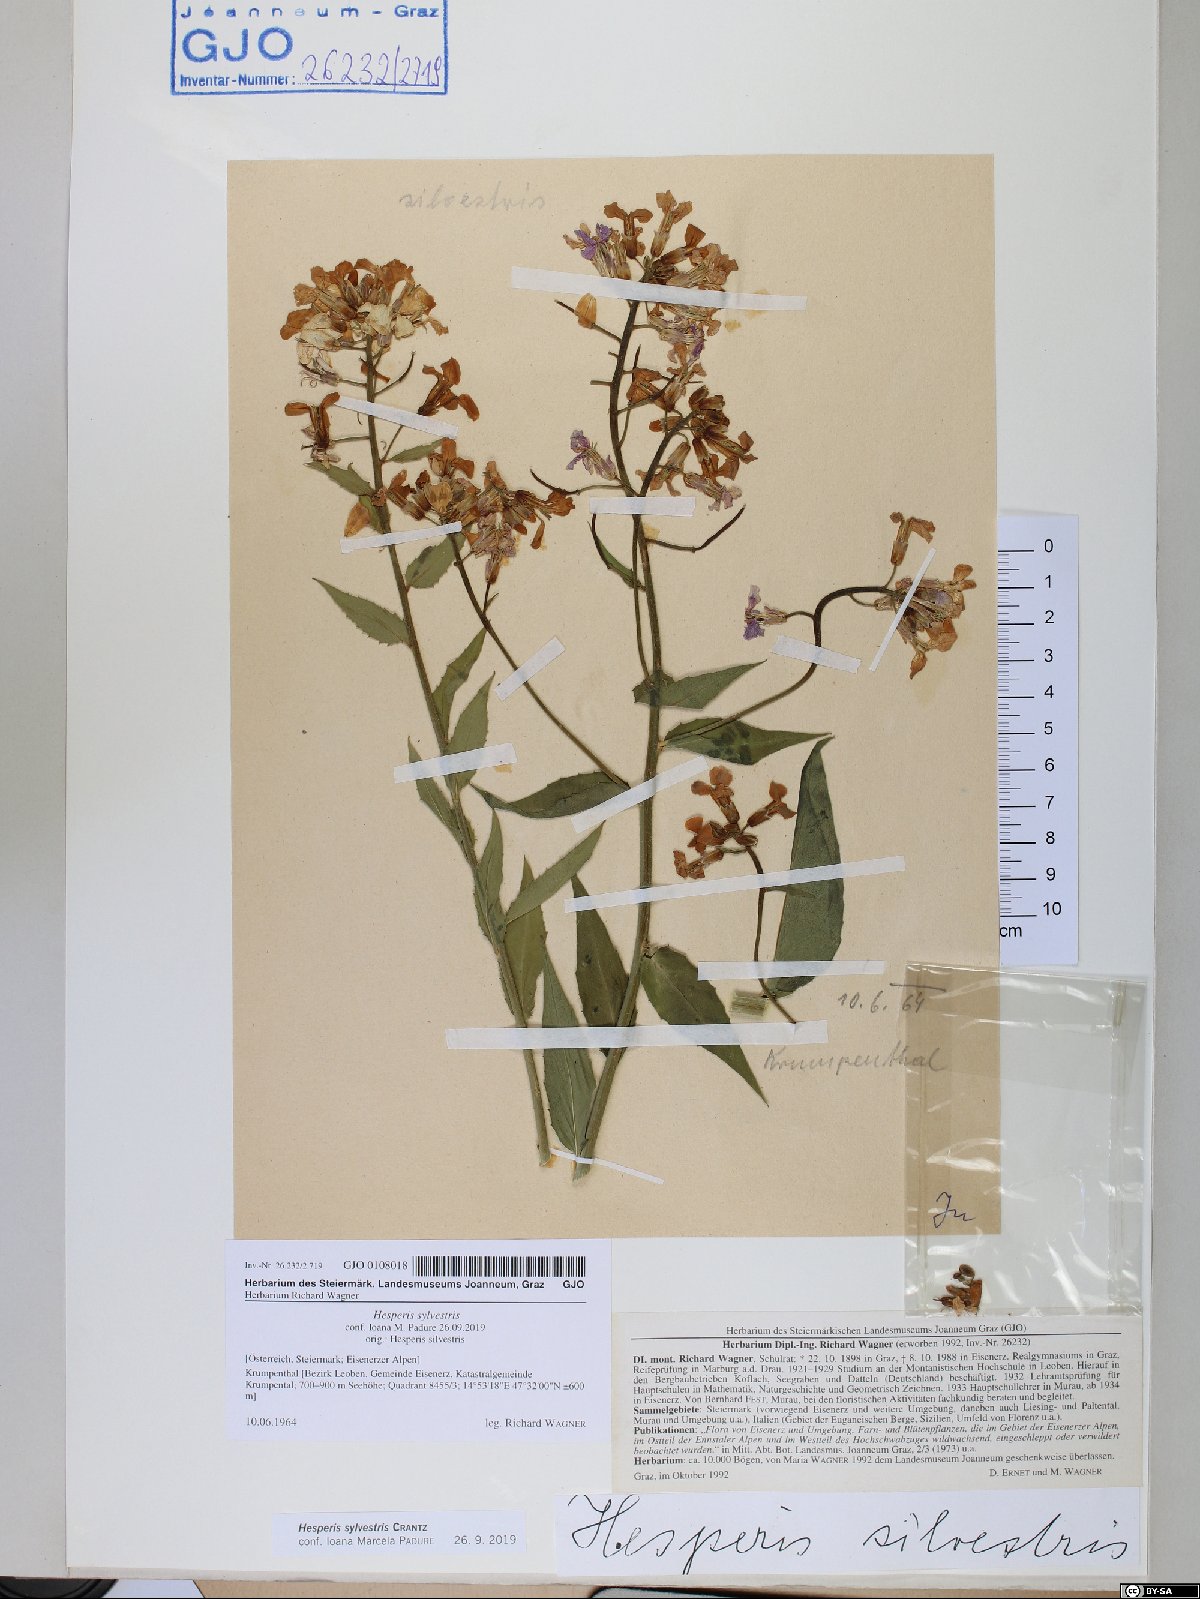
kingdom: Plantae
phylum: Tracheophyta
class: Magnoliopsida
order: Brassicales
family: Brassicaceae
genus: Hesperis
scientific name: Hesperis sylvestris
